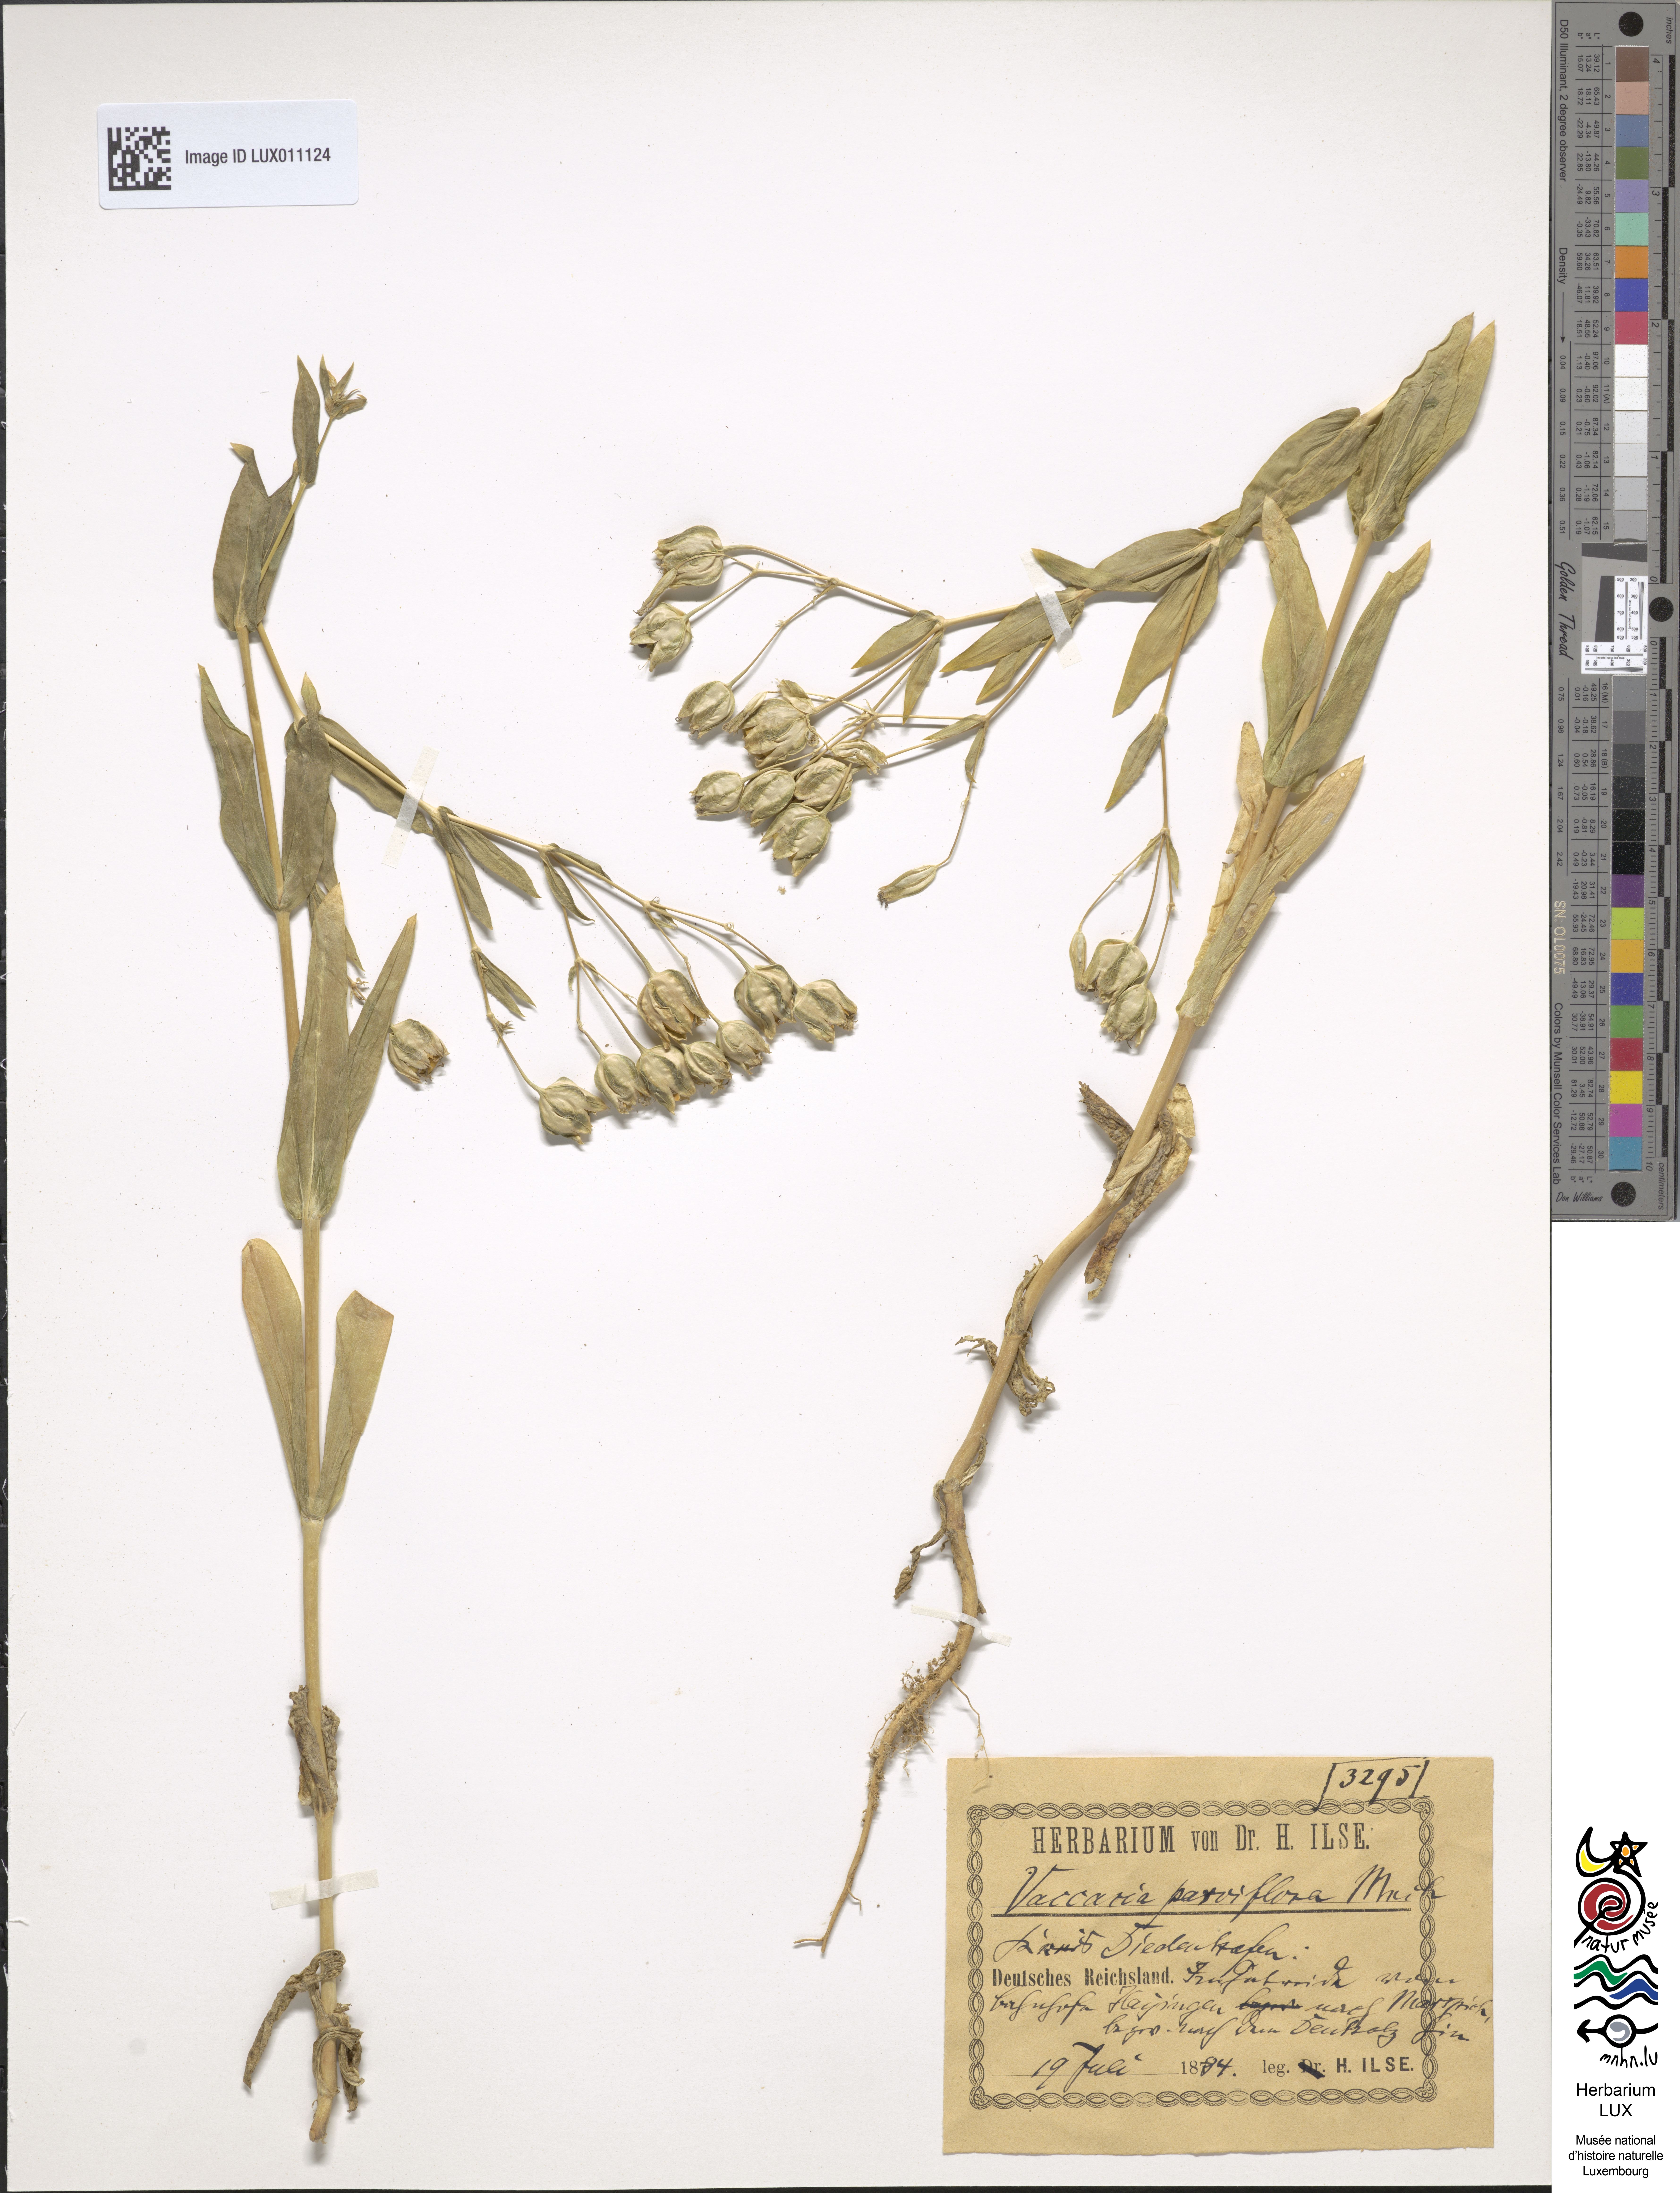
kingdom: Plantae
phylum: Tracheophyta
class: Magnoliopsida
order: Caryophyllales
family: Caryophyllaceae
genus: Gypsophila
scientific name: Gypsophila vaccaria
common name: Cow soapwort
